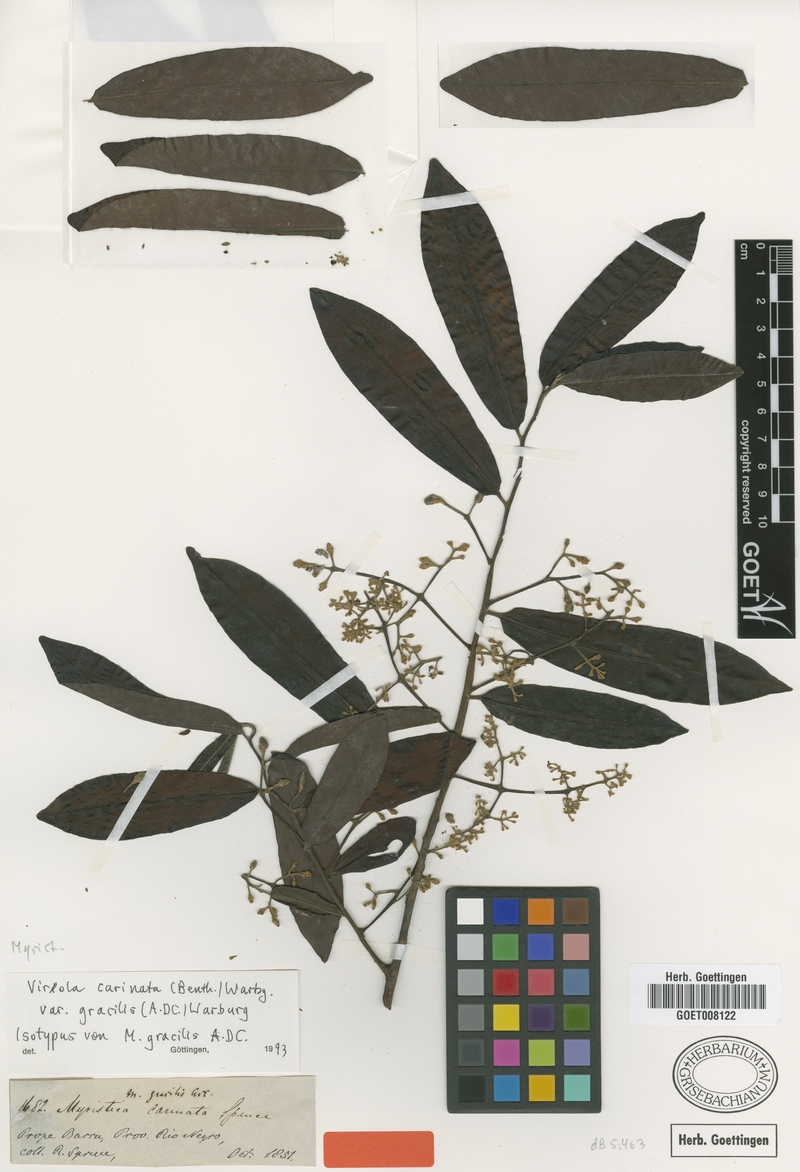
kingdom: Plantae
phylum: Tracheophyta
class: Magnoliopsida
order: Magnoliales
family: Myristicaceae
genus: Virola
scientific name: Virola carinata
